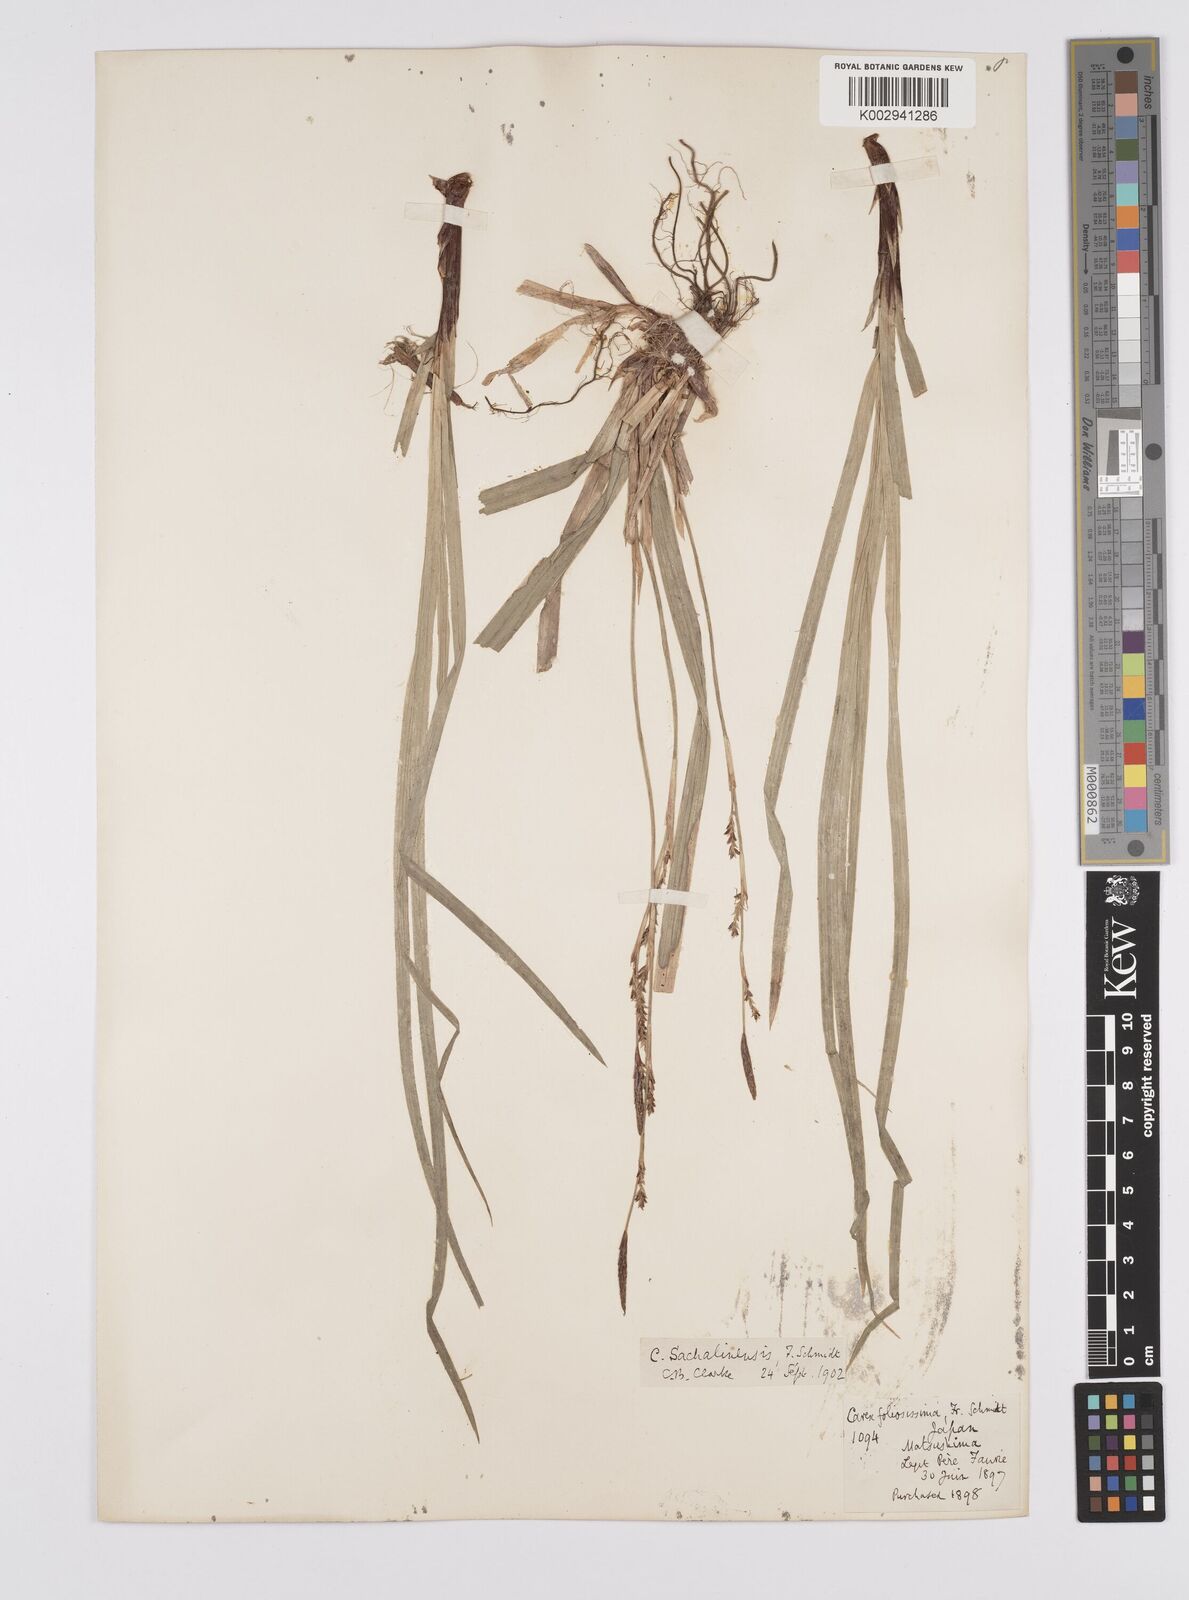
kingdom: Plantae
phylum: Tracheophyta
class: Liliopsida
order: Poales
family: Cyperaceae
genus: Carex
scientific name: Carex foliosissima
